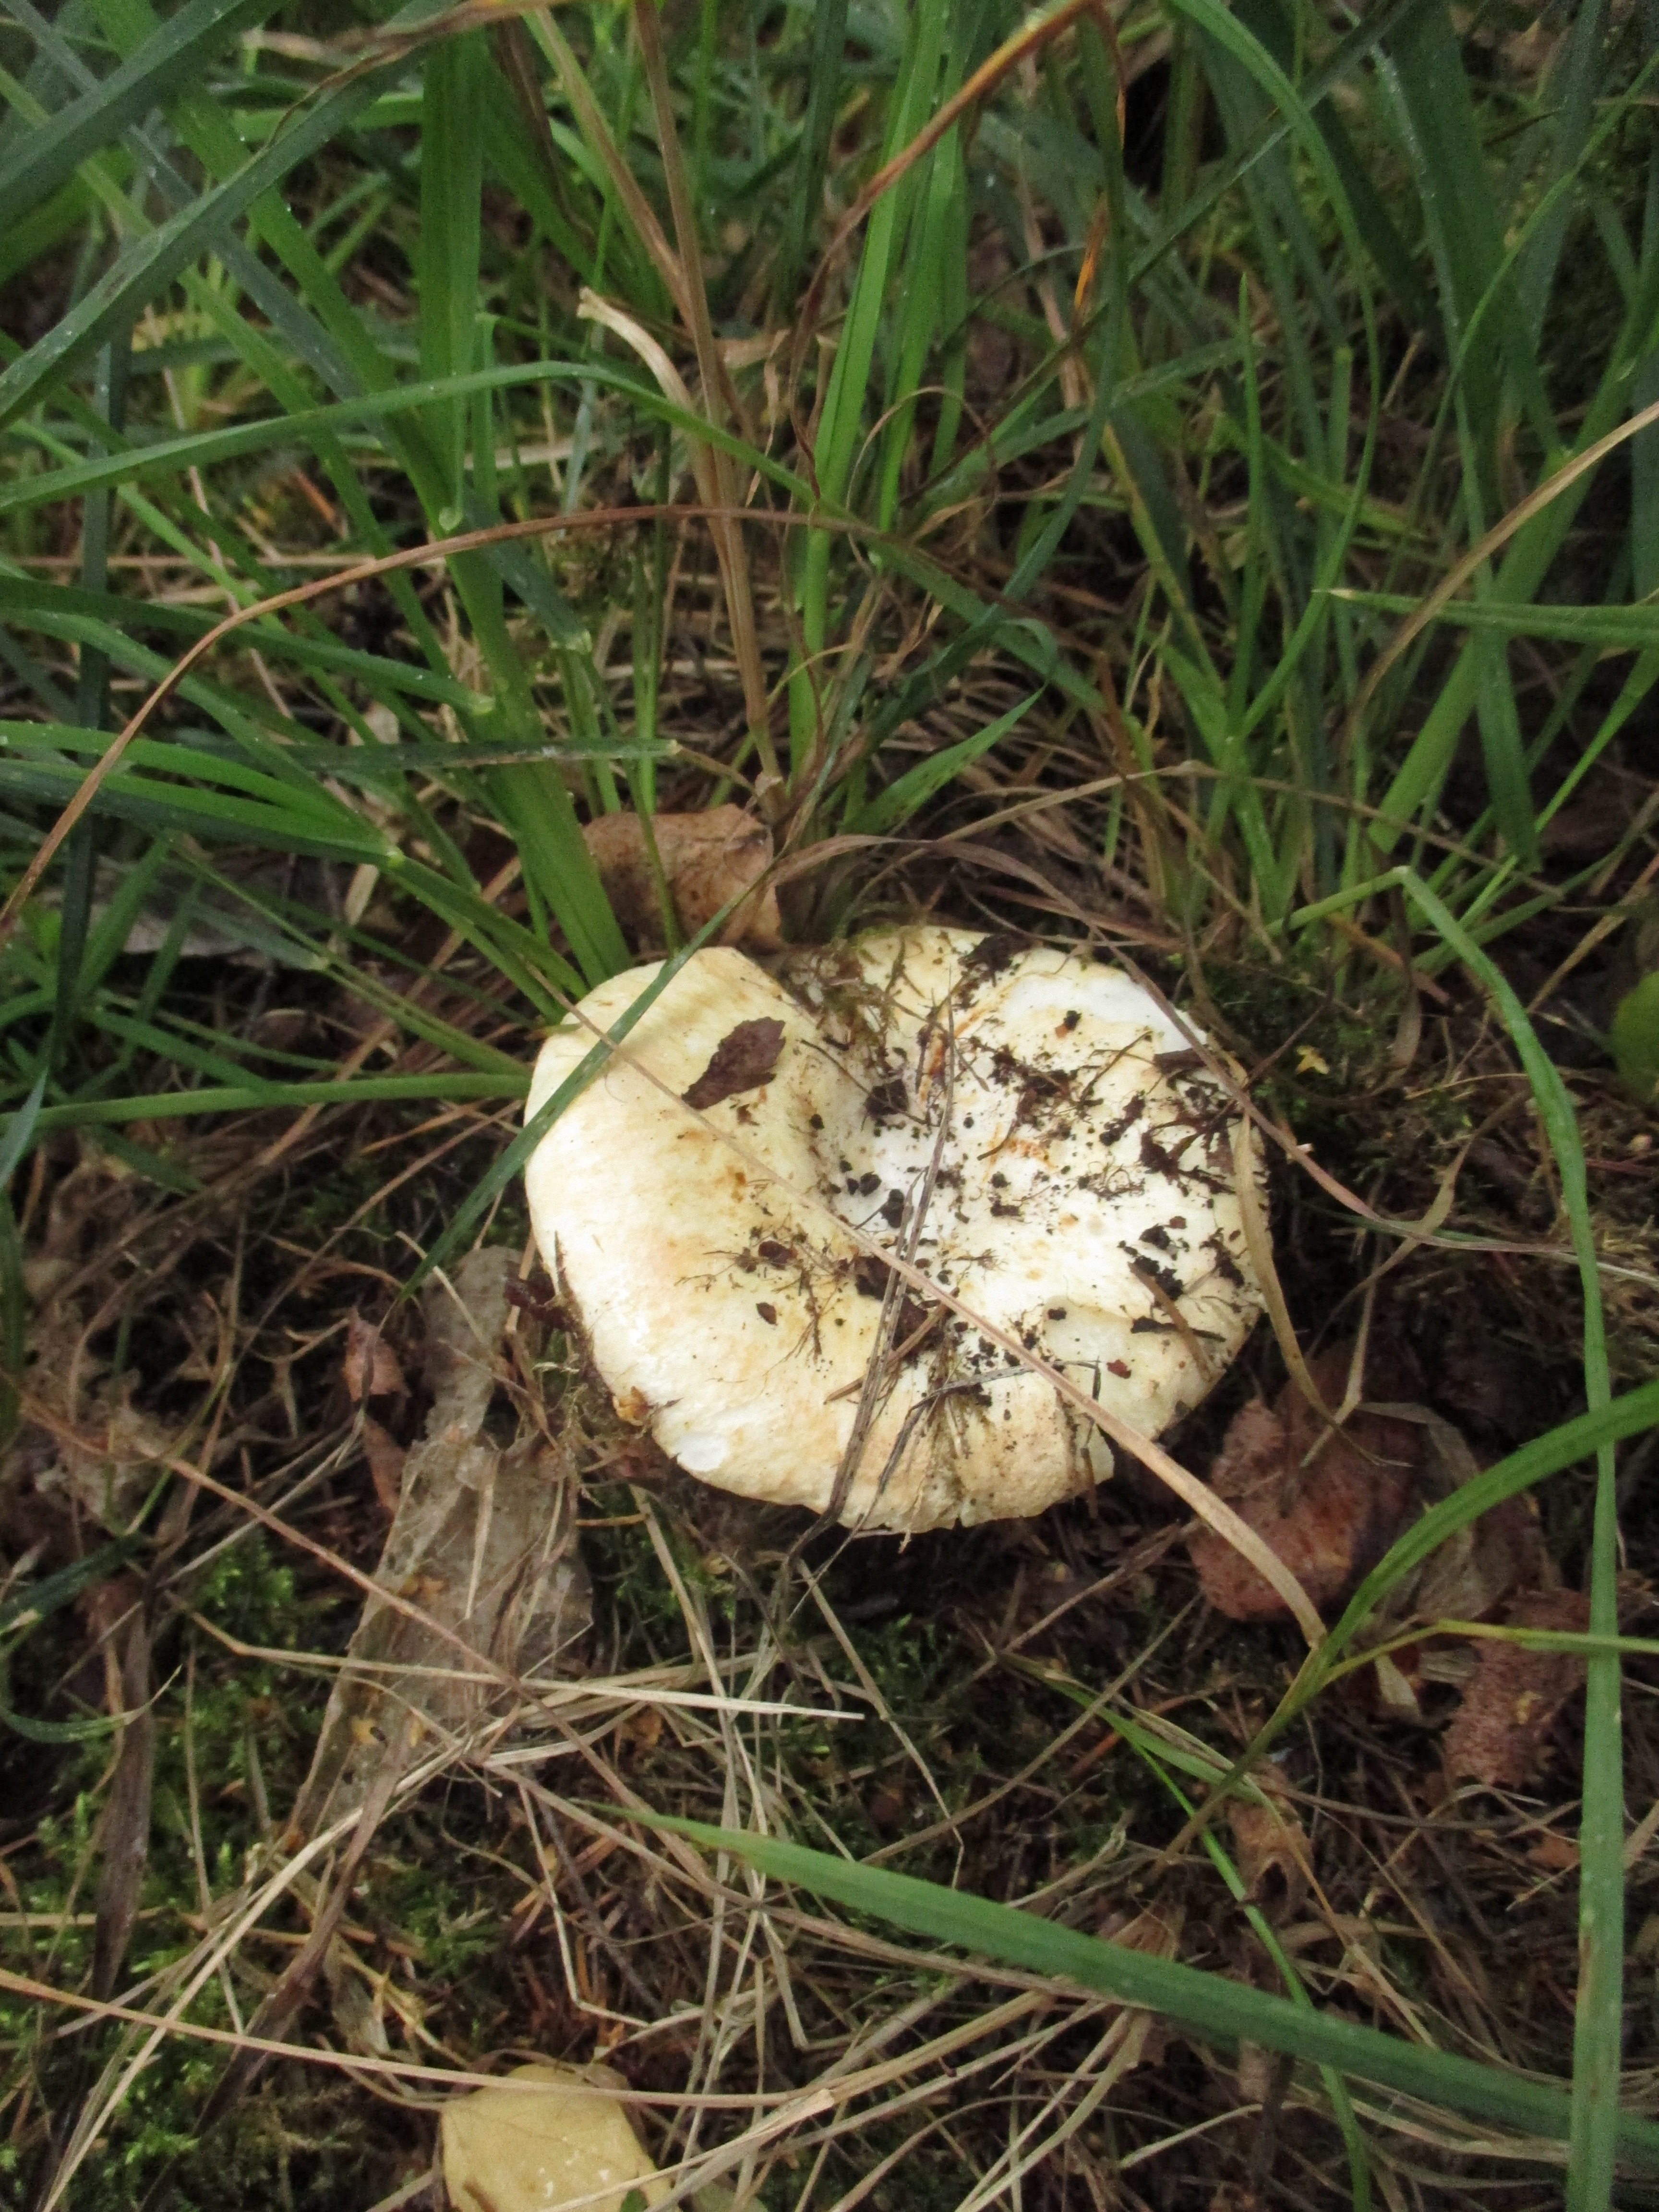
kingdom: Fungi
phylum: Basidiomycota
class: Agaricomycetes
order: Russulales
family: Russulaceae
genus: Russula
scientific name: Russula chloroides
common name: Blue band brittlegill
